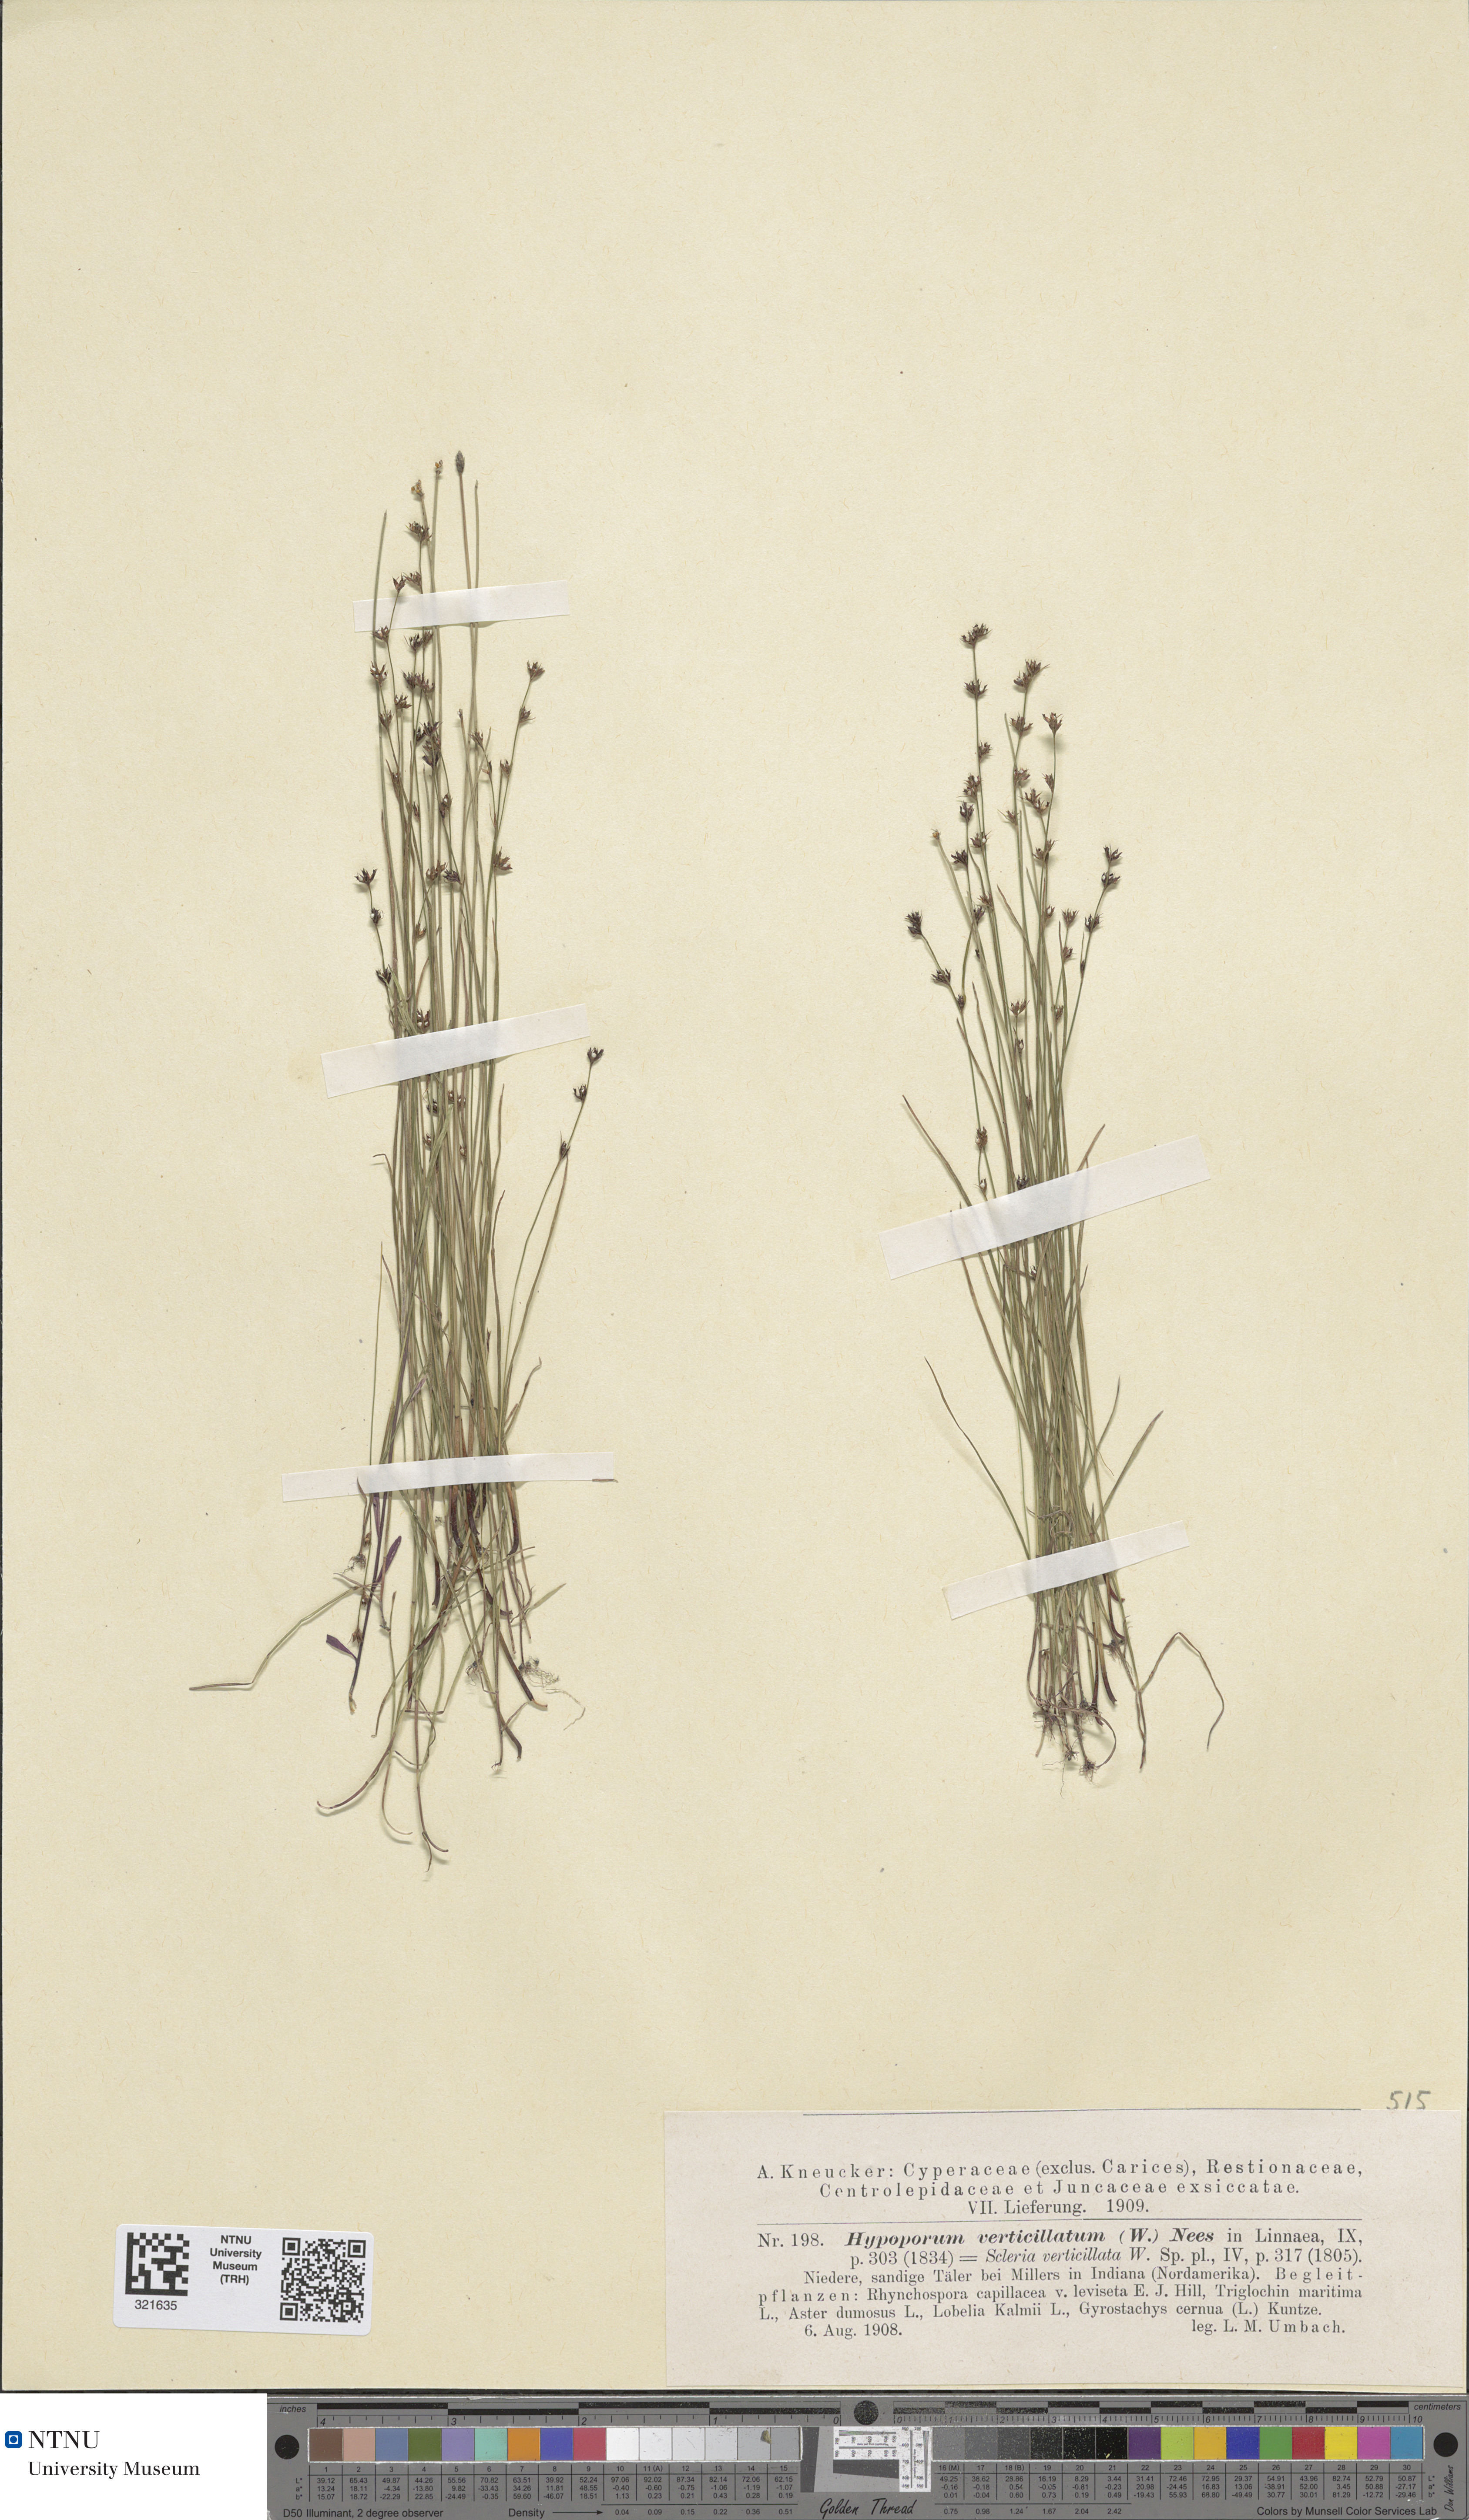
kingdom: Plantae
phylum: Tracheophyta
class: Liliopsida
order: Poales
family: Cyperaceae
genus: Scleria
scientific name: Scleria tenella
